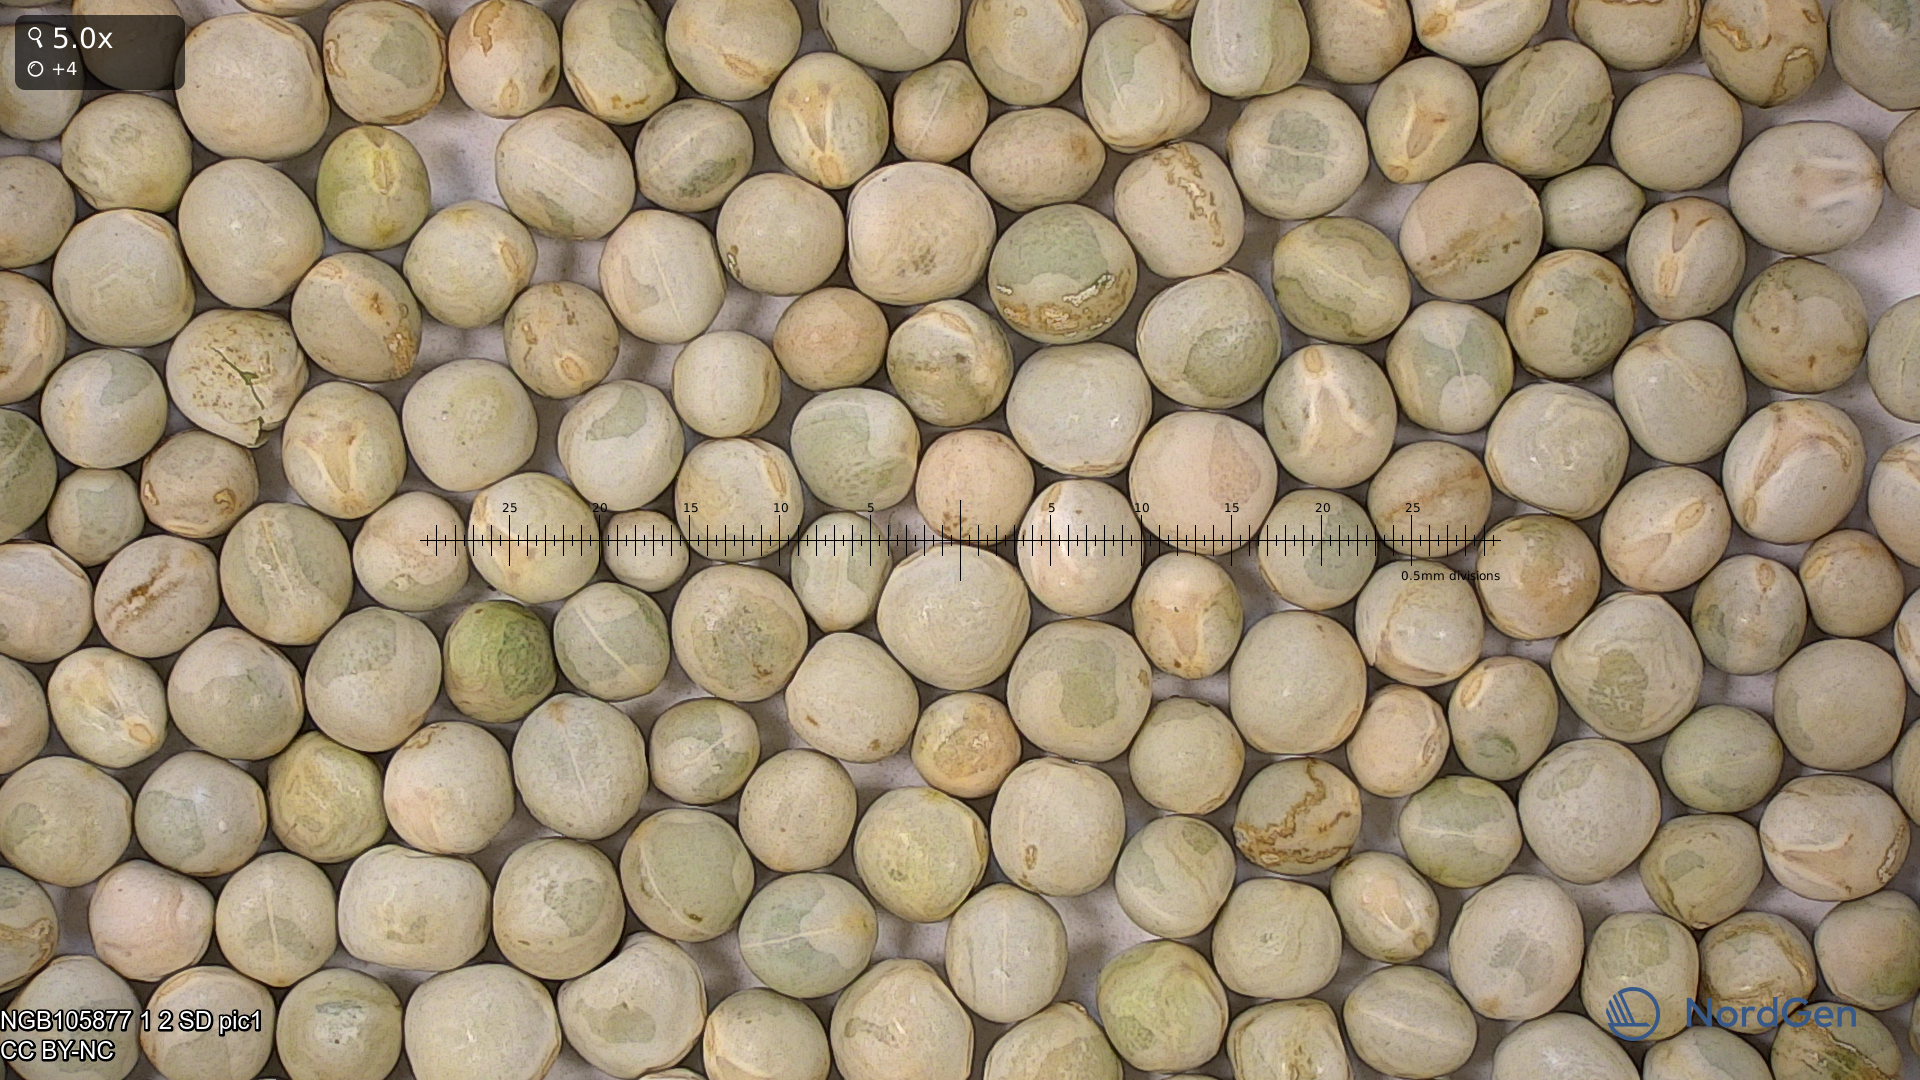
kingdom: Plantae
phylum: Tracheophyta
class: Magnoliopsida
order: Fabales
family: Fabaceae
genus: Lathyrus
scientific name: Lathyrus oleraceus
